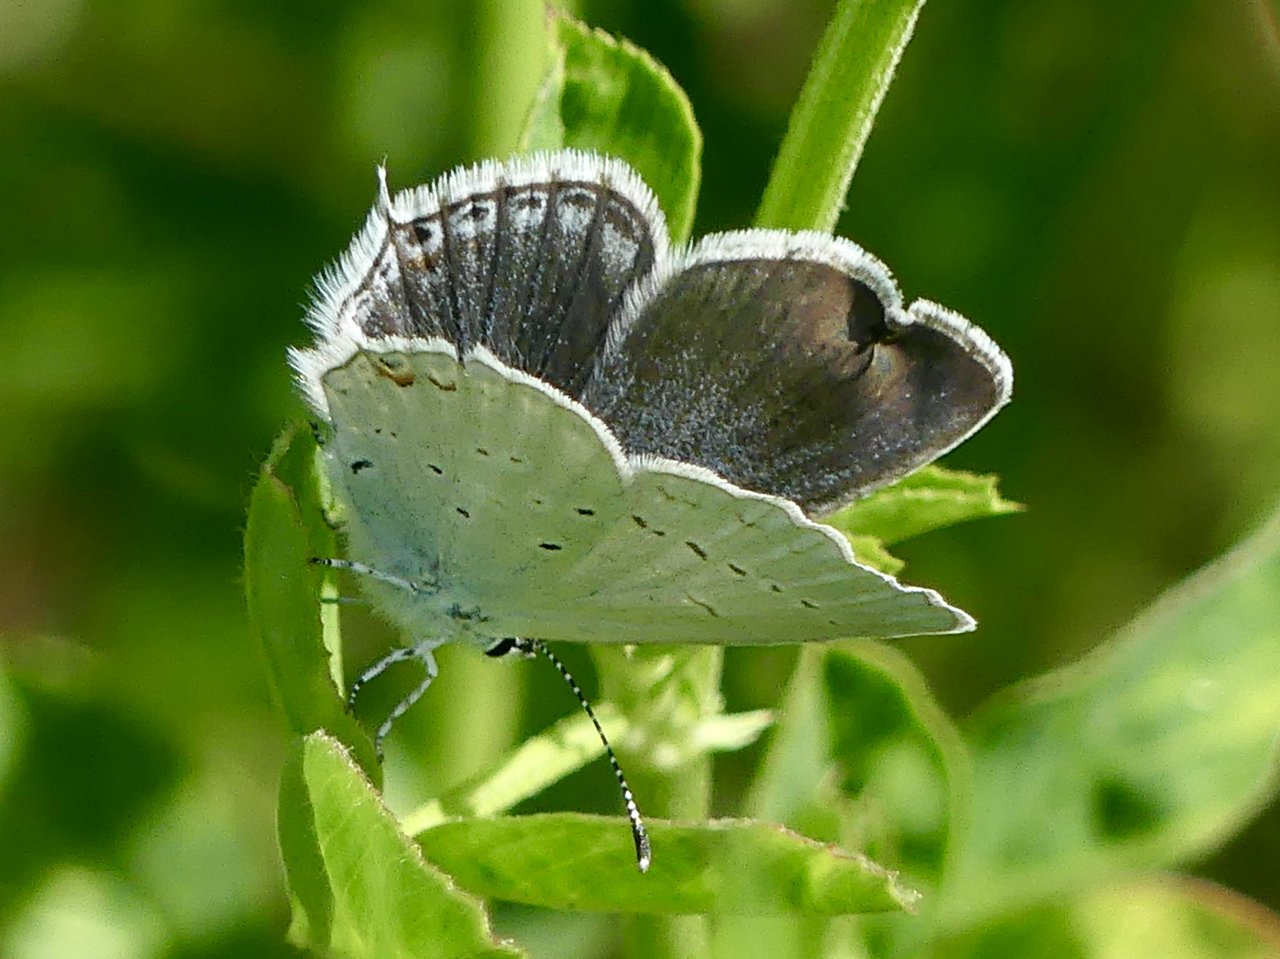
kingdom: Animalia
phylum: Arthropoda
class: Insecta
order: Lepidoptera
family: Lycaenidae
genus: Elkalyce
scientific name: Elkalyce amyntula
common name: Western Tailed-Blue
